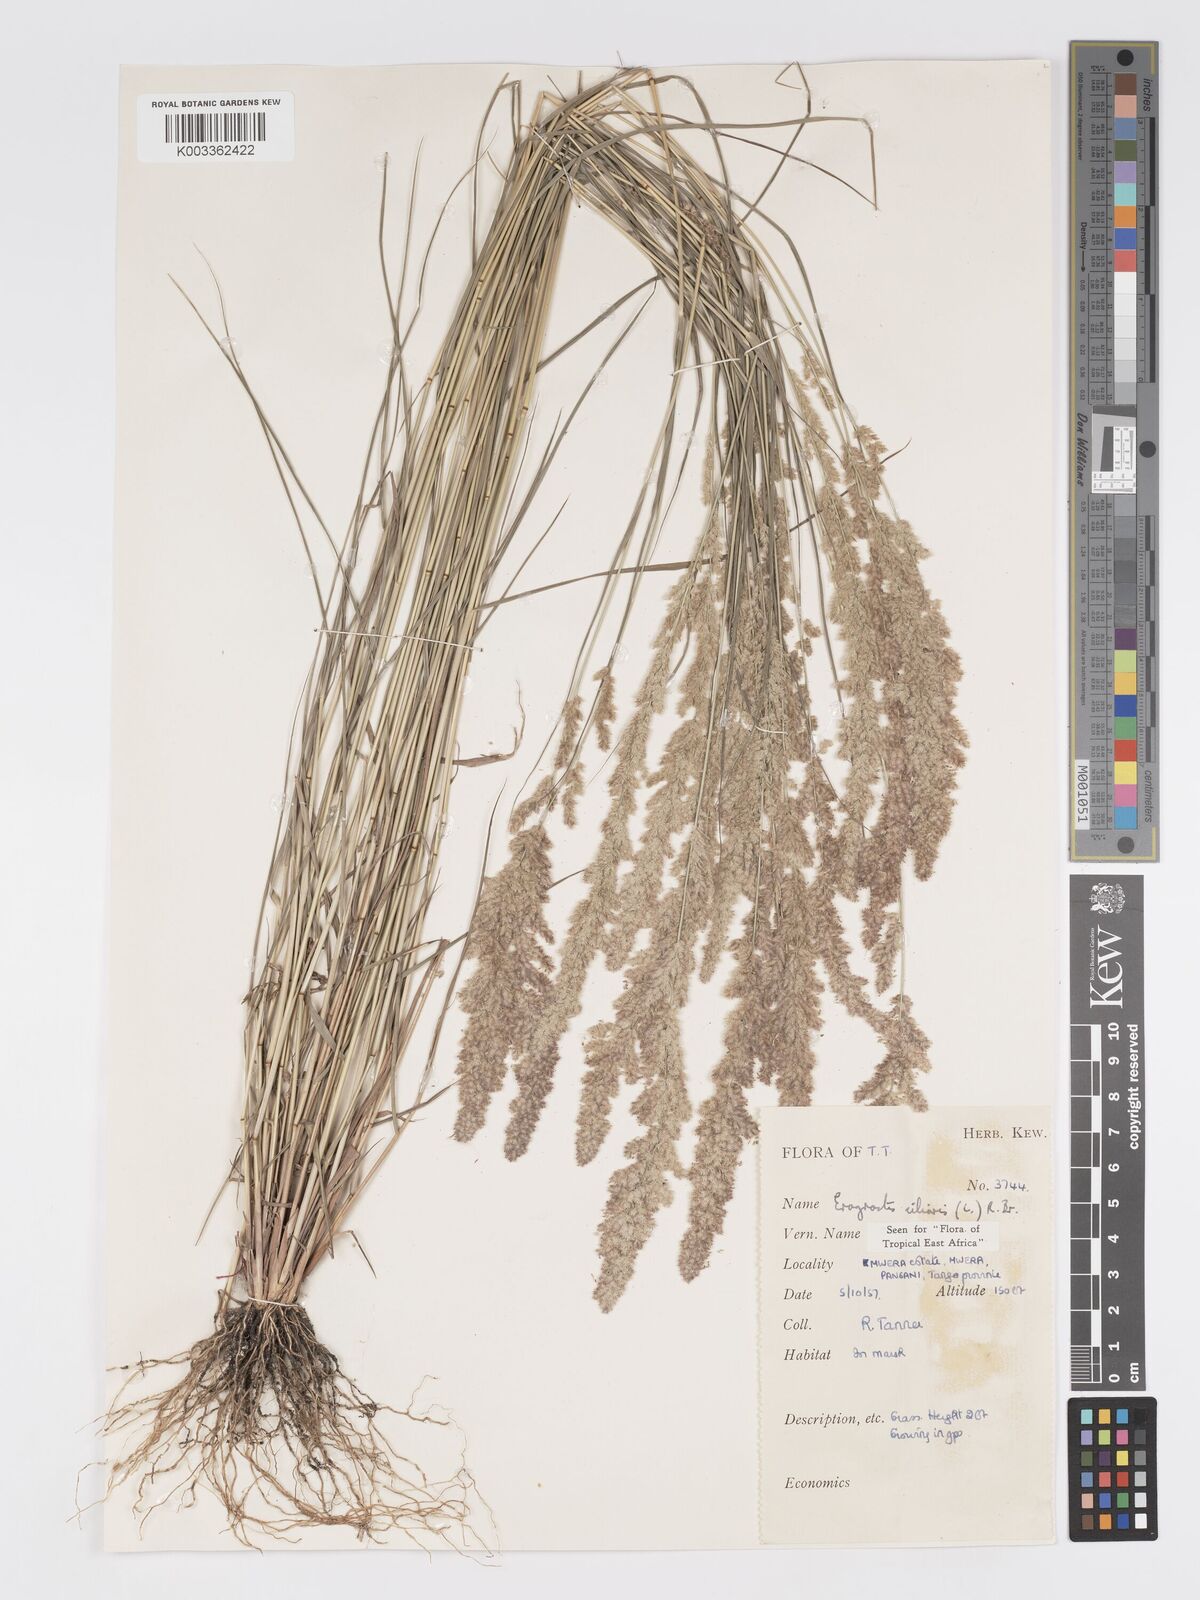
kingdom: Plantae
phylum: Tracheophyta
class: Liliopsida
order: Poales
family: Poaceae
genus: Eragrostis
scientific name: Eragrostis ciliaris
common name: Gophertail lovegrass
